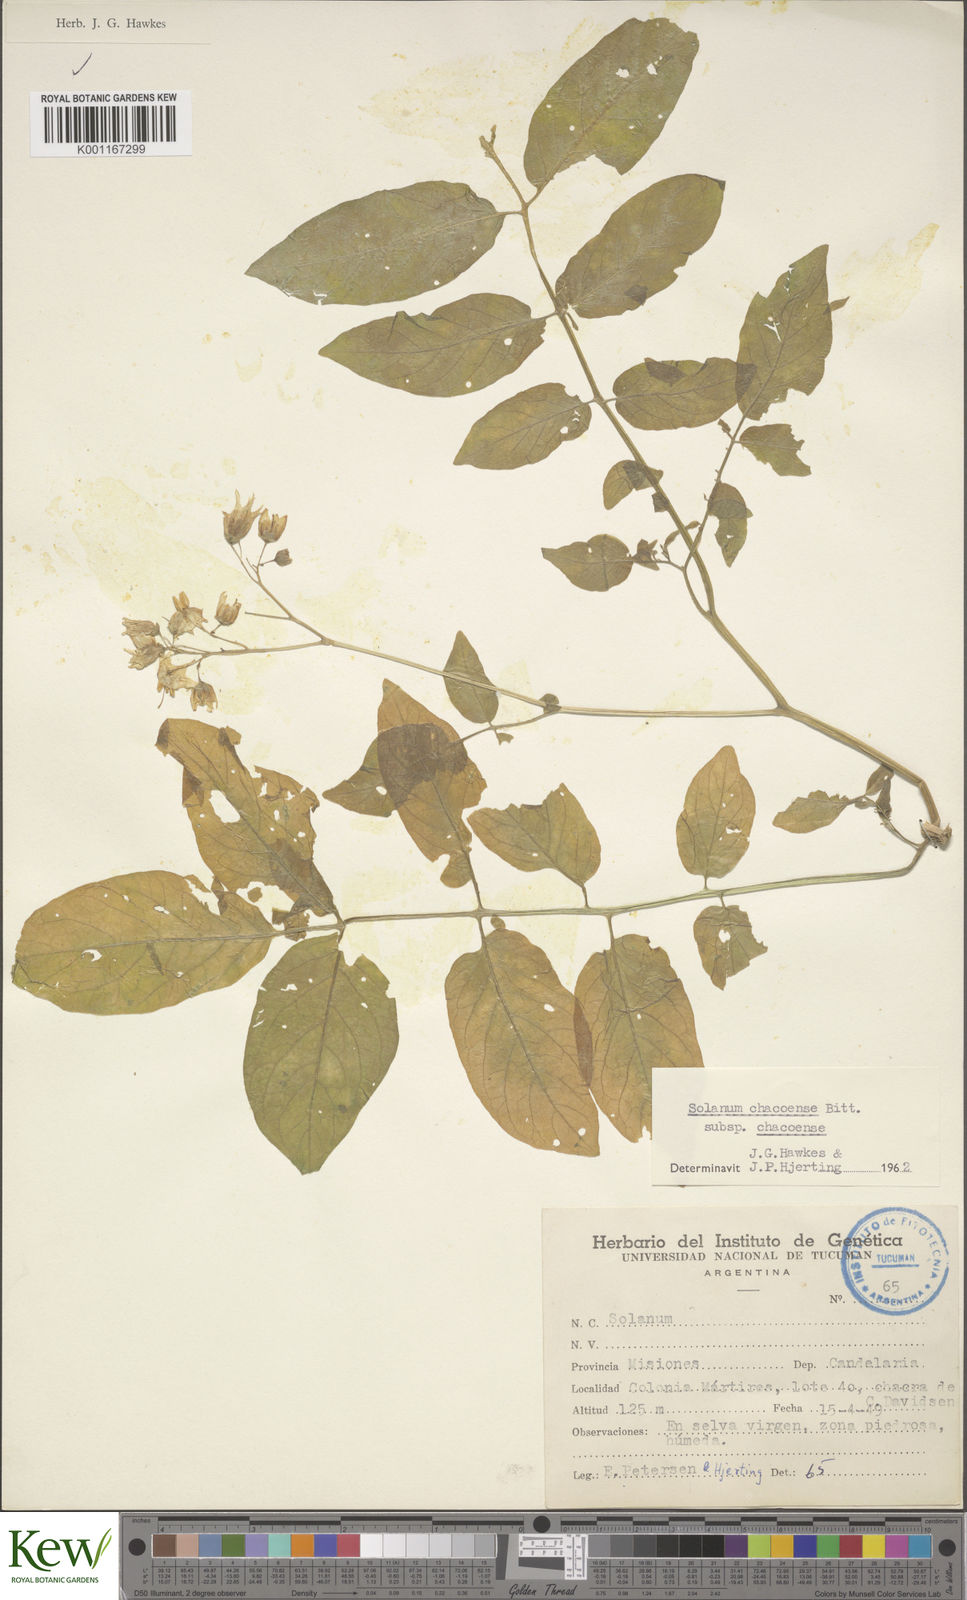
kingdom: Plantae
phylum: Tracheophyta
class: Magnoliopsida
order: Solanales
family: Solanaceae
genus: Solanum
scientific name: Solanum chacoense
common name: Chaco potato
